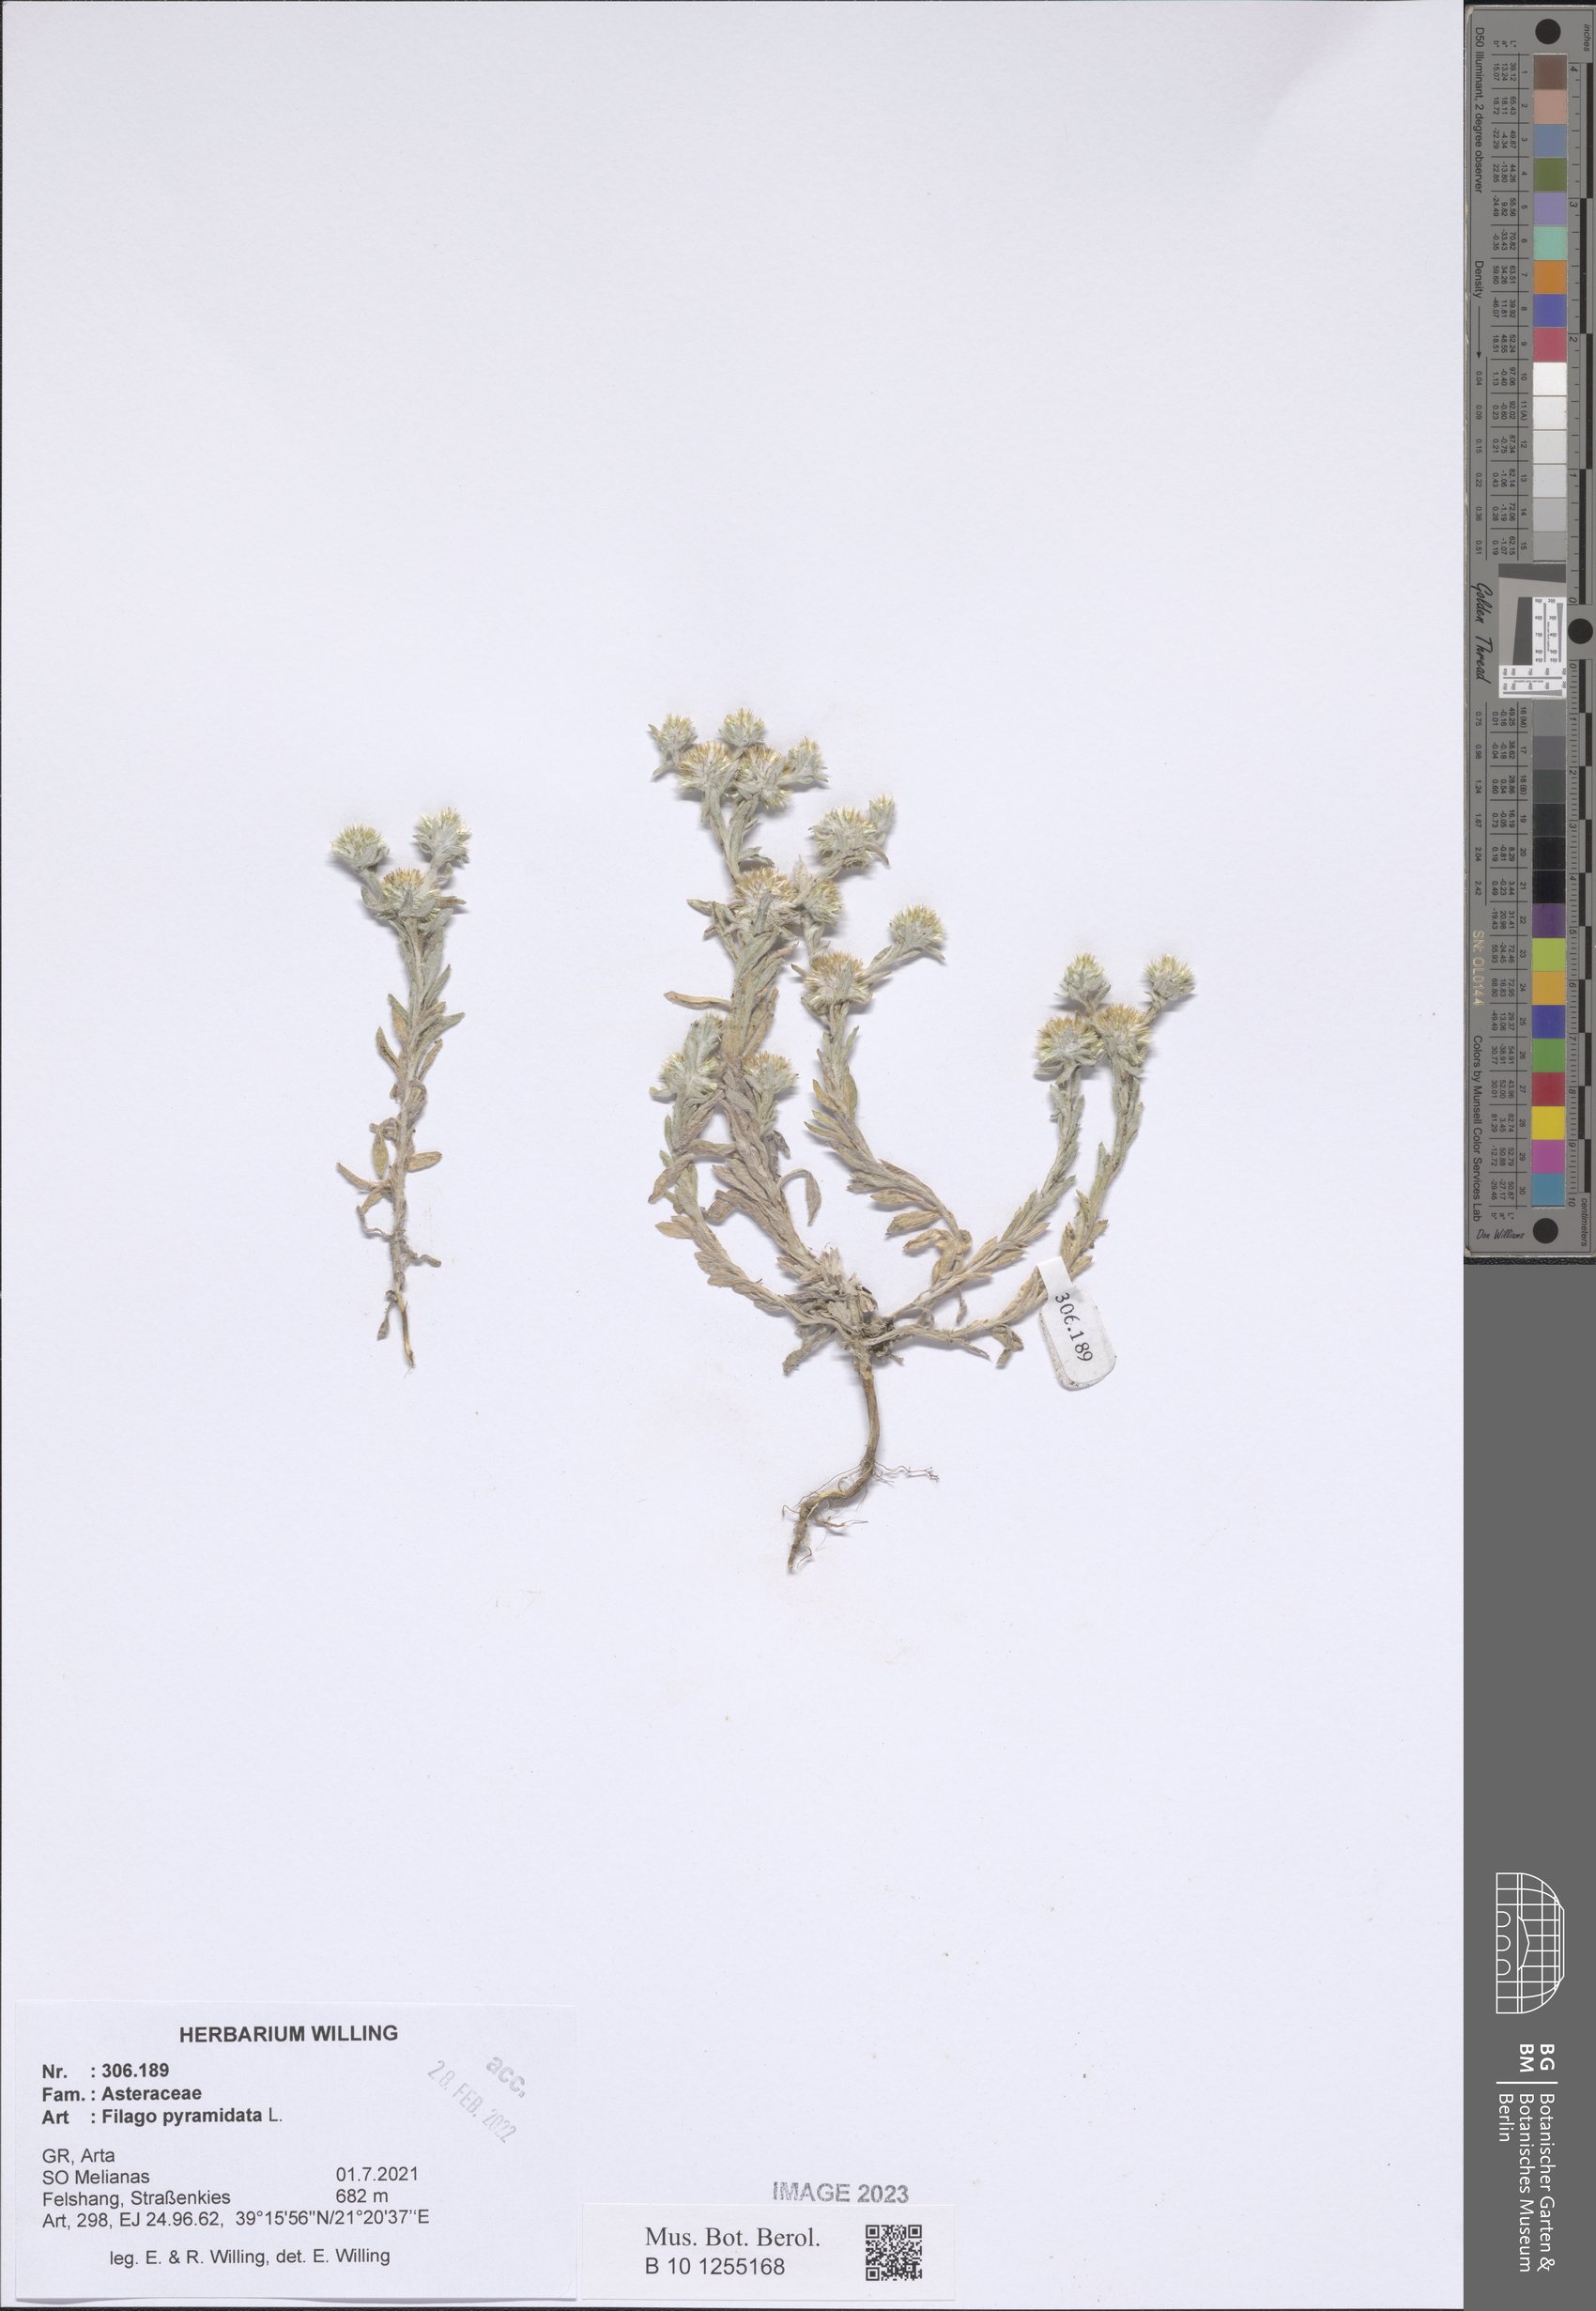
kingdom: Plantae
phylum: Tracheophyta
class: Magnoliopsida
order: Asterales
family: Asteraceae
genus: Filago
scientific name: Filago pyramidata
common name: Broad-leaved cudweed
